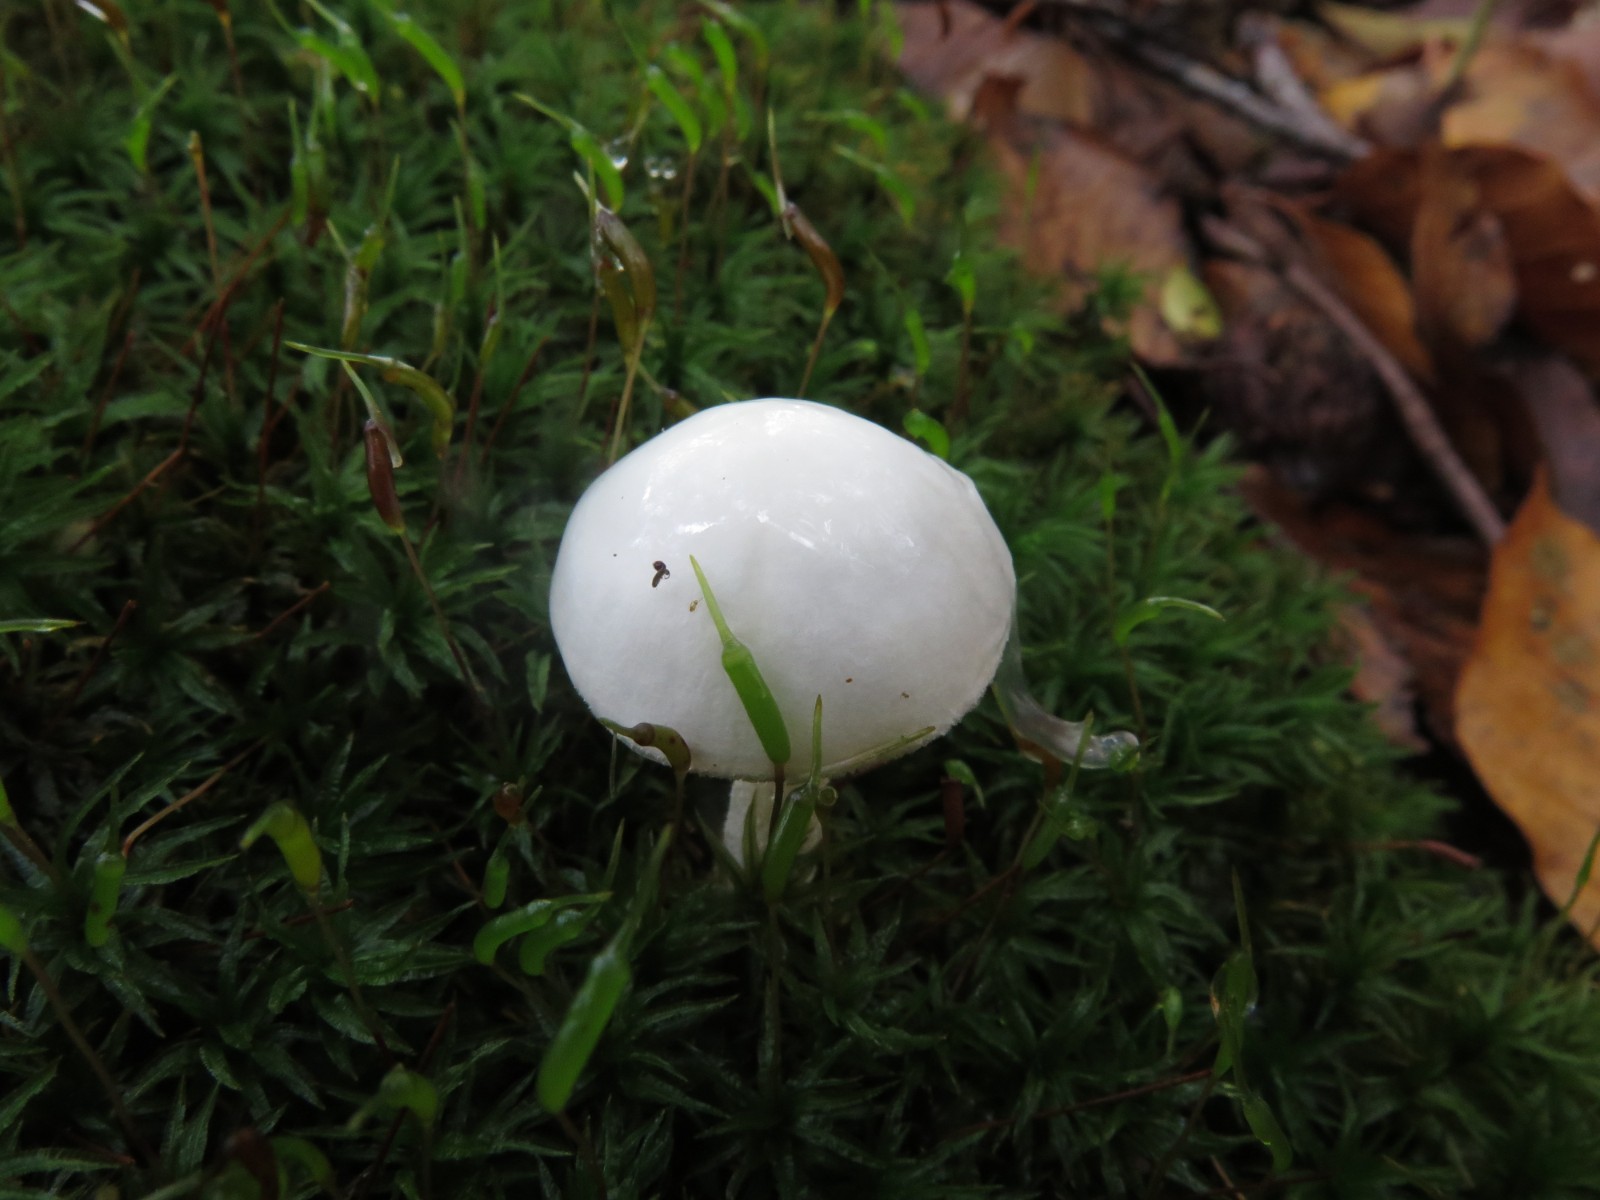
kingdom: Fungi
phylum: Basidiomycota
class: Agaricomycetes
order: Agaricales
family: Hygrophoraceae
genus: Hygrophorus
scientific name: Hygrophorus eburneus
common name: elfenbens-sneglehat
